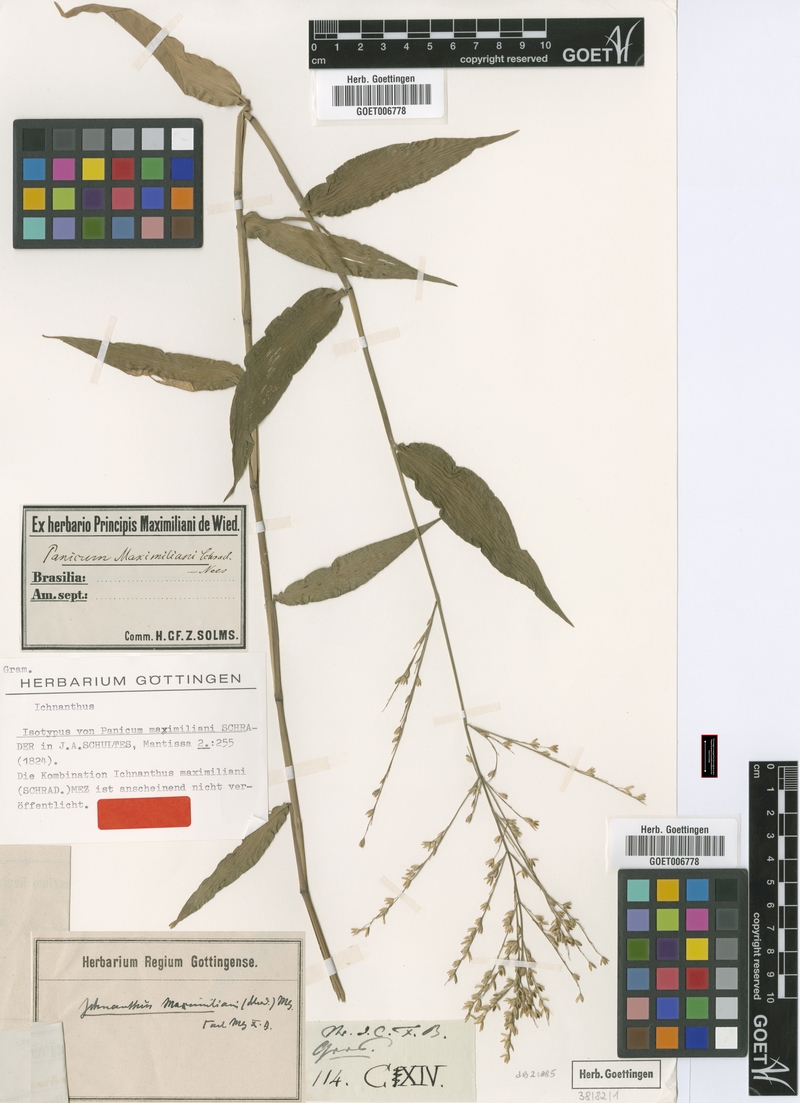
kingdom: Plantae
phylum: Tracheophyta
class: Liliopsida
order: Poales
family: Poaceae
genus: Ichnanthus
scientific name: Ichnanthus leiocarpus
